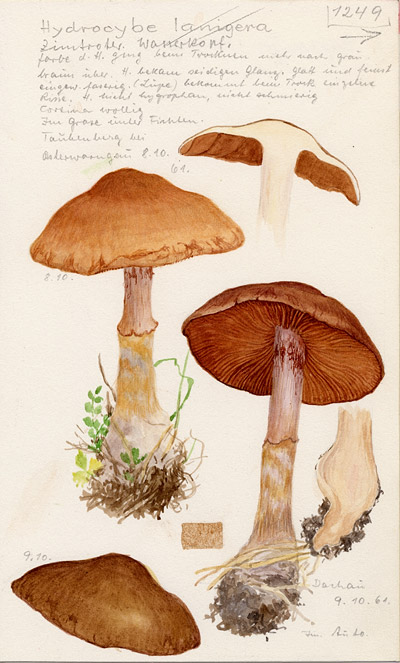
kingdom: Fungi
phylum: Basidiomycota
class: Agaricomycetes
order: Agaricales
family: Cortinariaceae
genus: Cortinarius
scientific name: Cortinarius laniger
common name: Woolly webcap
